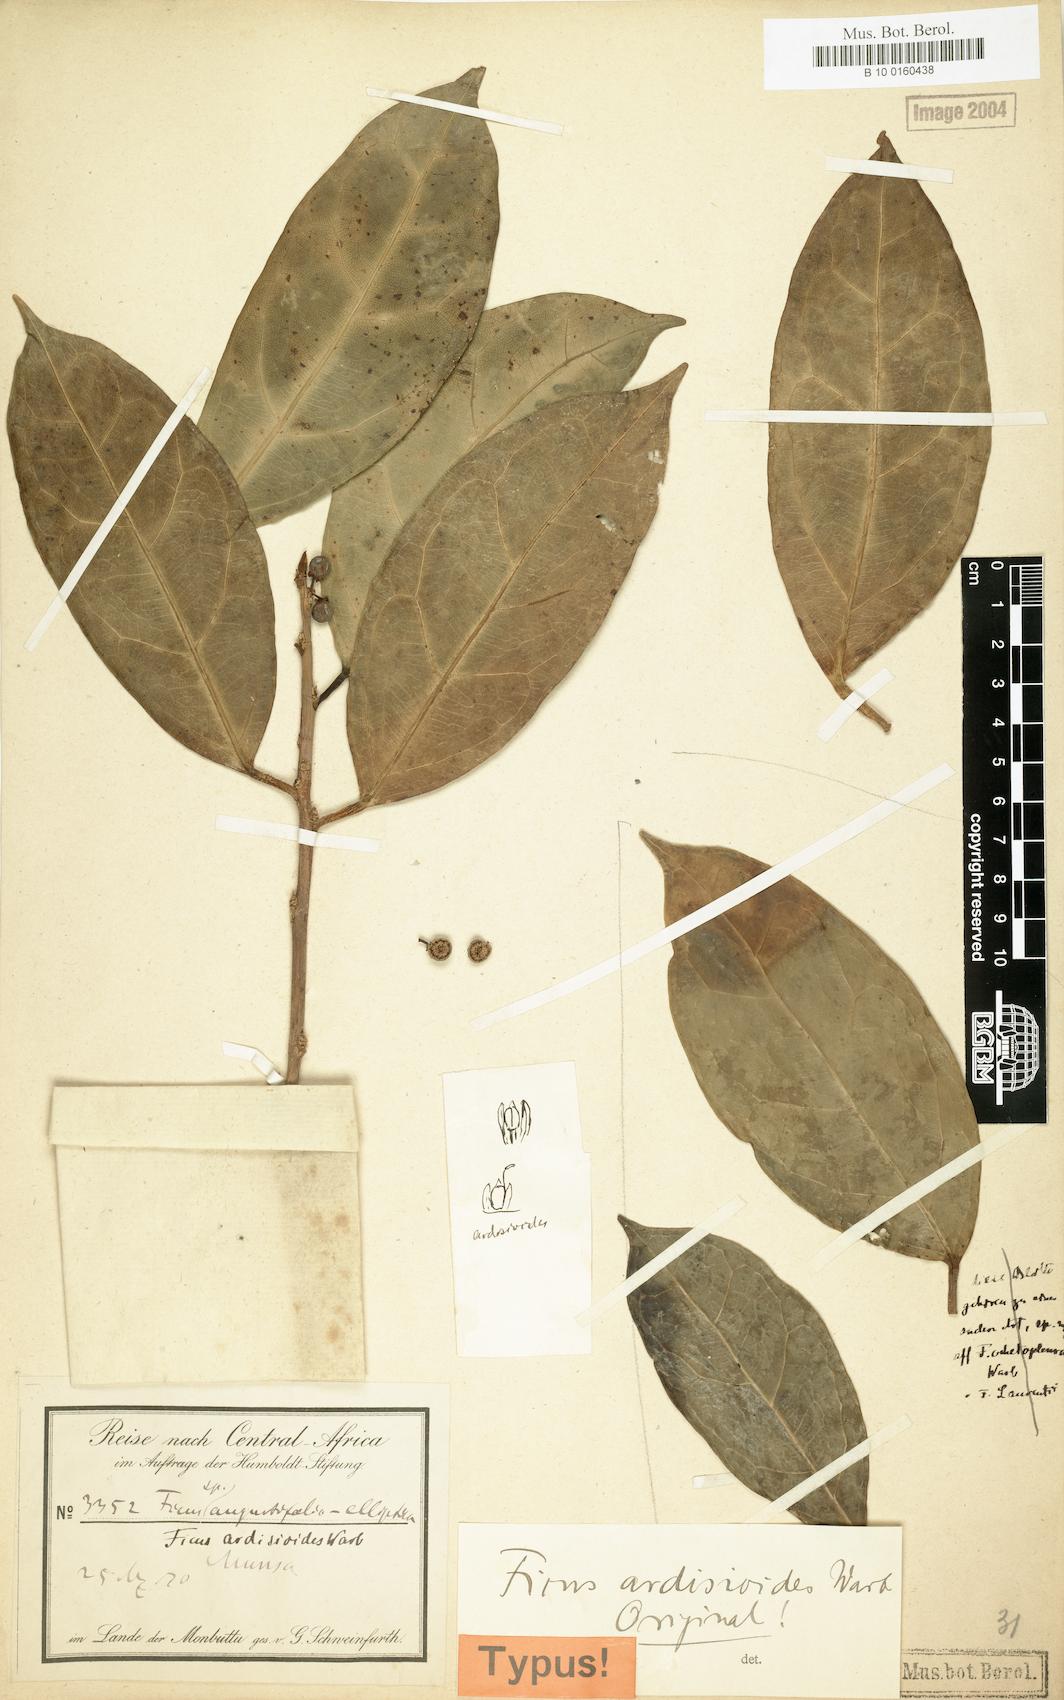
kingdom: Plantae
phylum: Tracheophyta
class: Magnoliopsida
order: Rosales
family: Moraceae
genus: Ficus
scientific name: Ficus ardisioides
